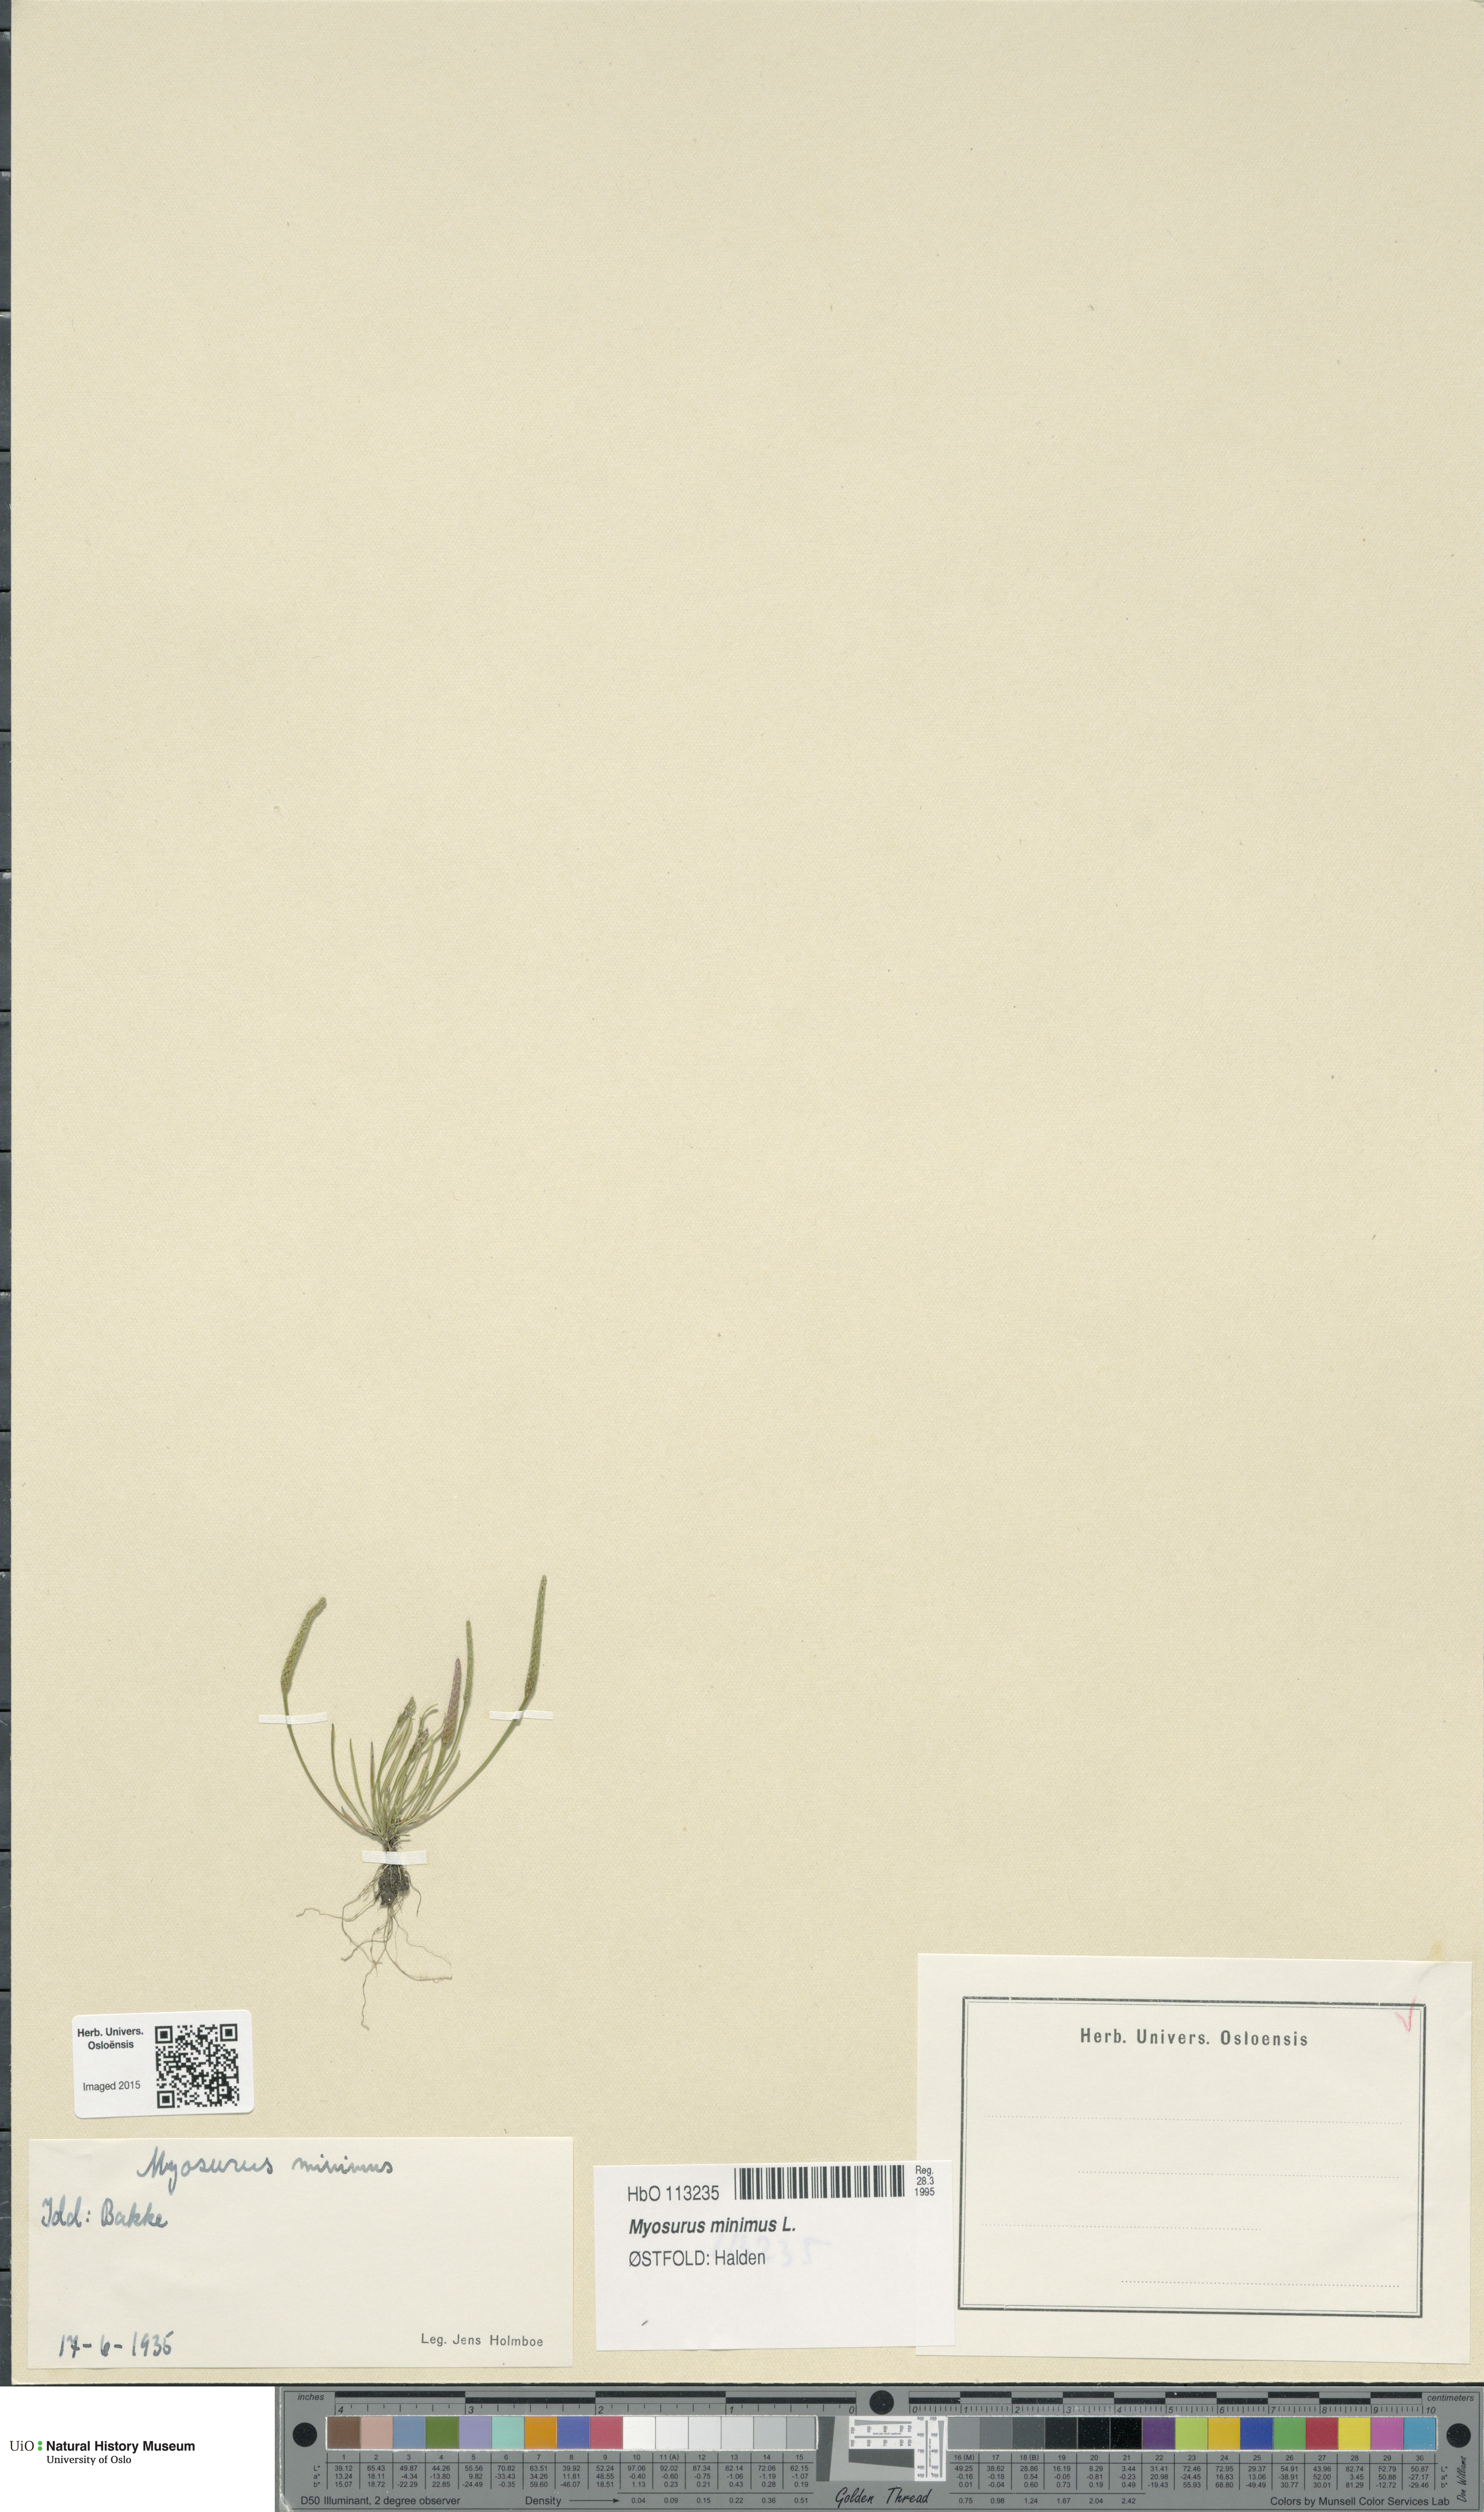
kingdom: Plantae
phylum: Tracheophyta
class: Magnoliopsida
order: Ranunculales
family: Ranunculaceae
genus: Myosurus
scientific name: Myosurus minimus
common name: Mousetail
